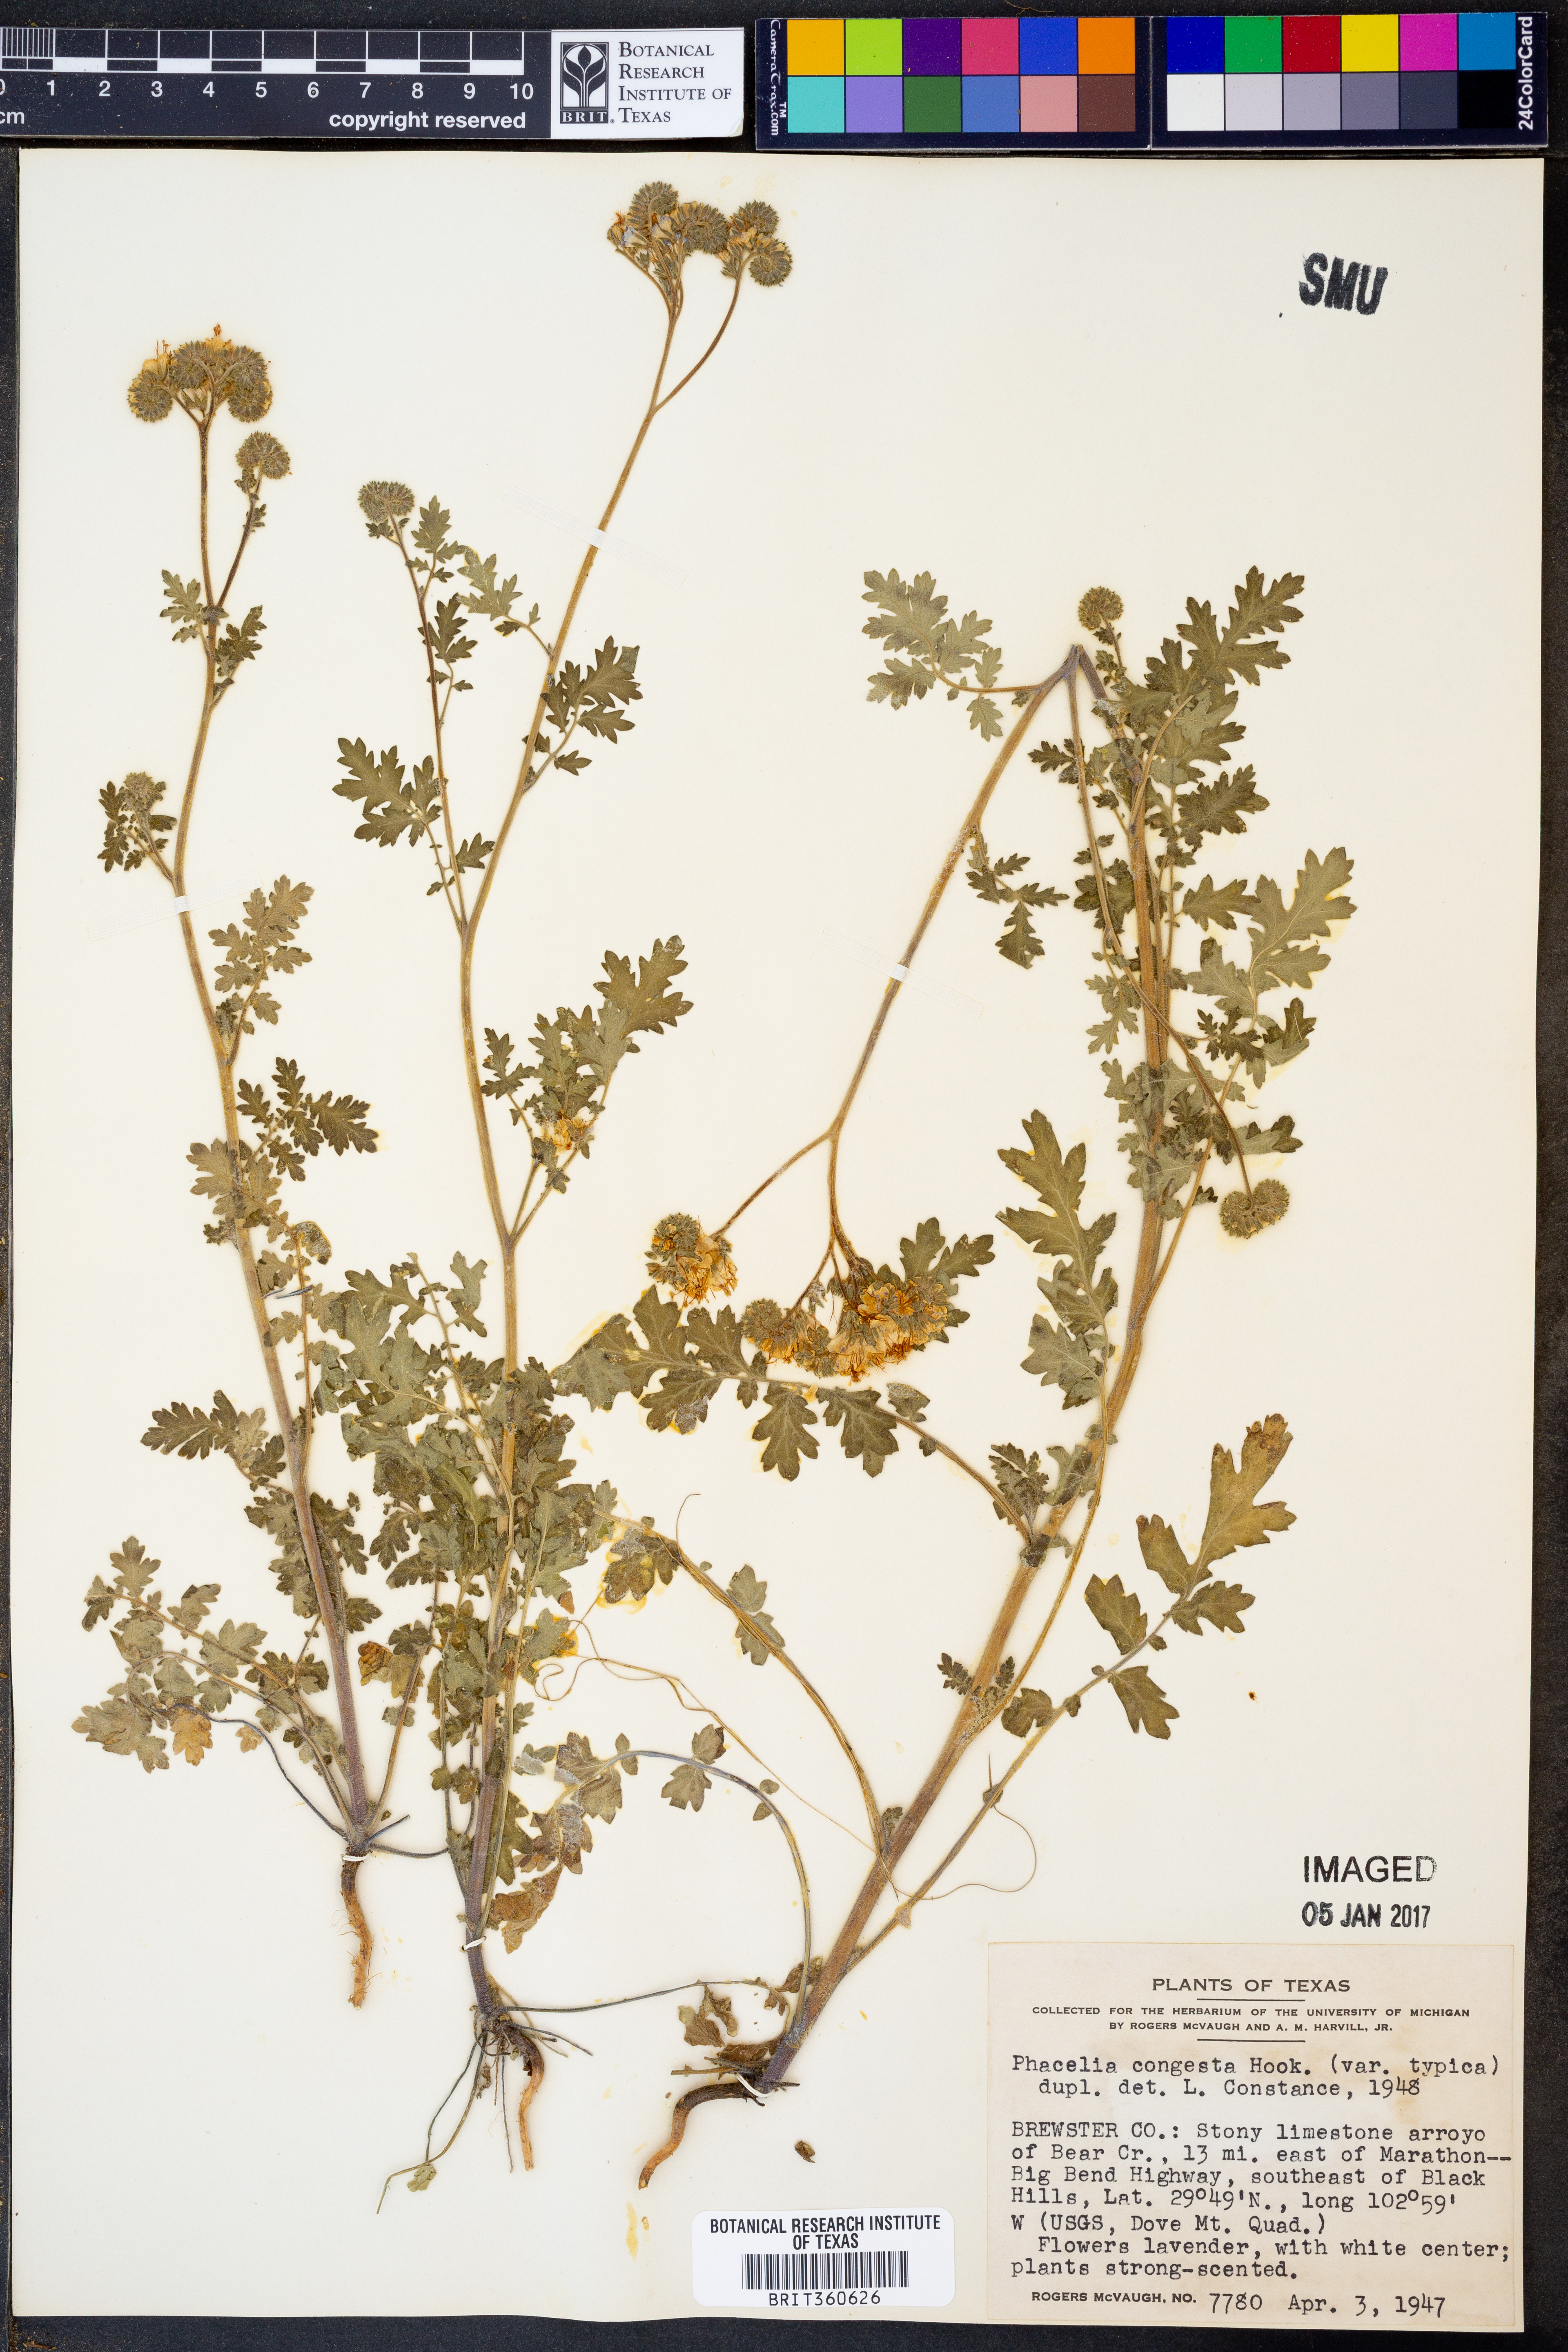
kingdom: Plantae
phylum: Tracheophyta
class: Magnoliopsida
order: Boraginales
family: Hydrophyllaceae
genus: Phacelia
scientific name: Phacelia congesta
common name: Blue curls
